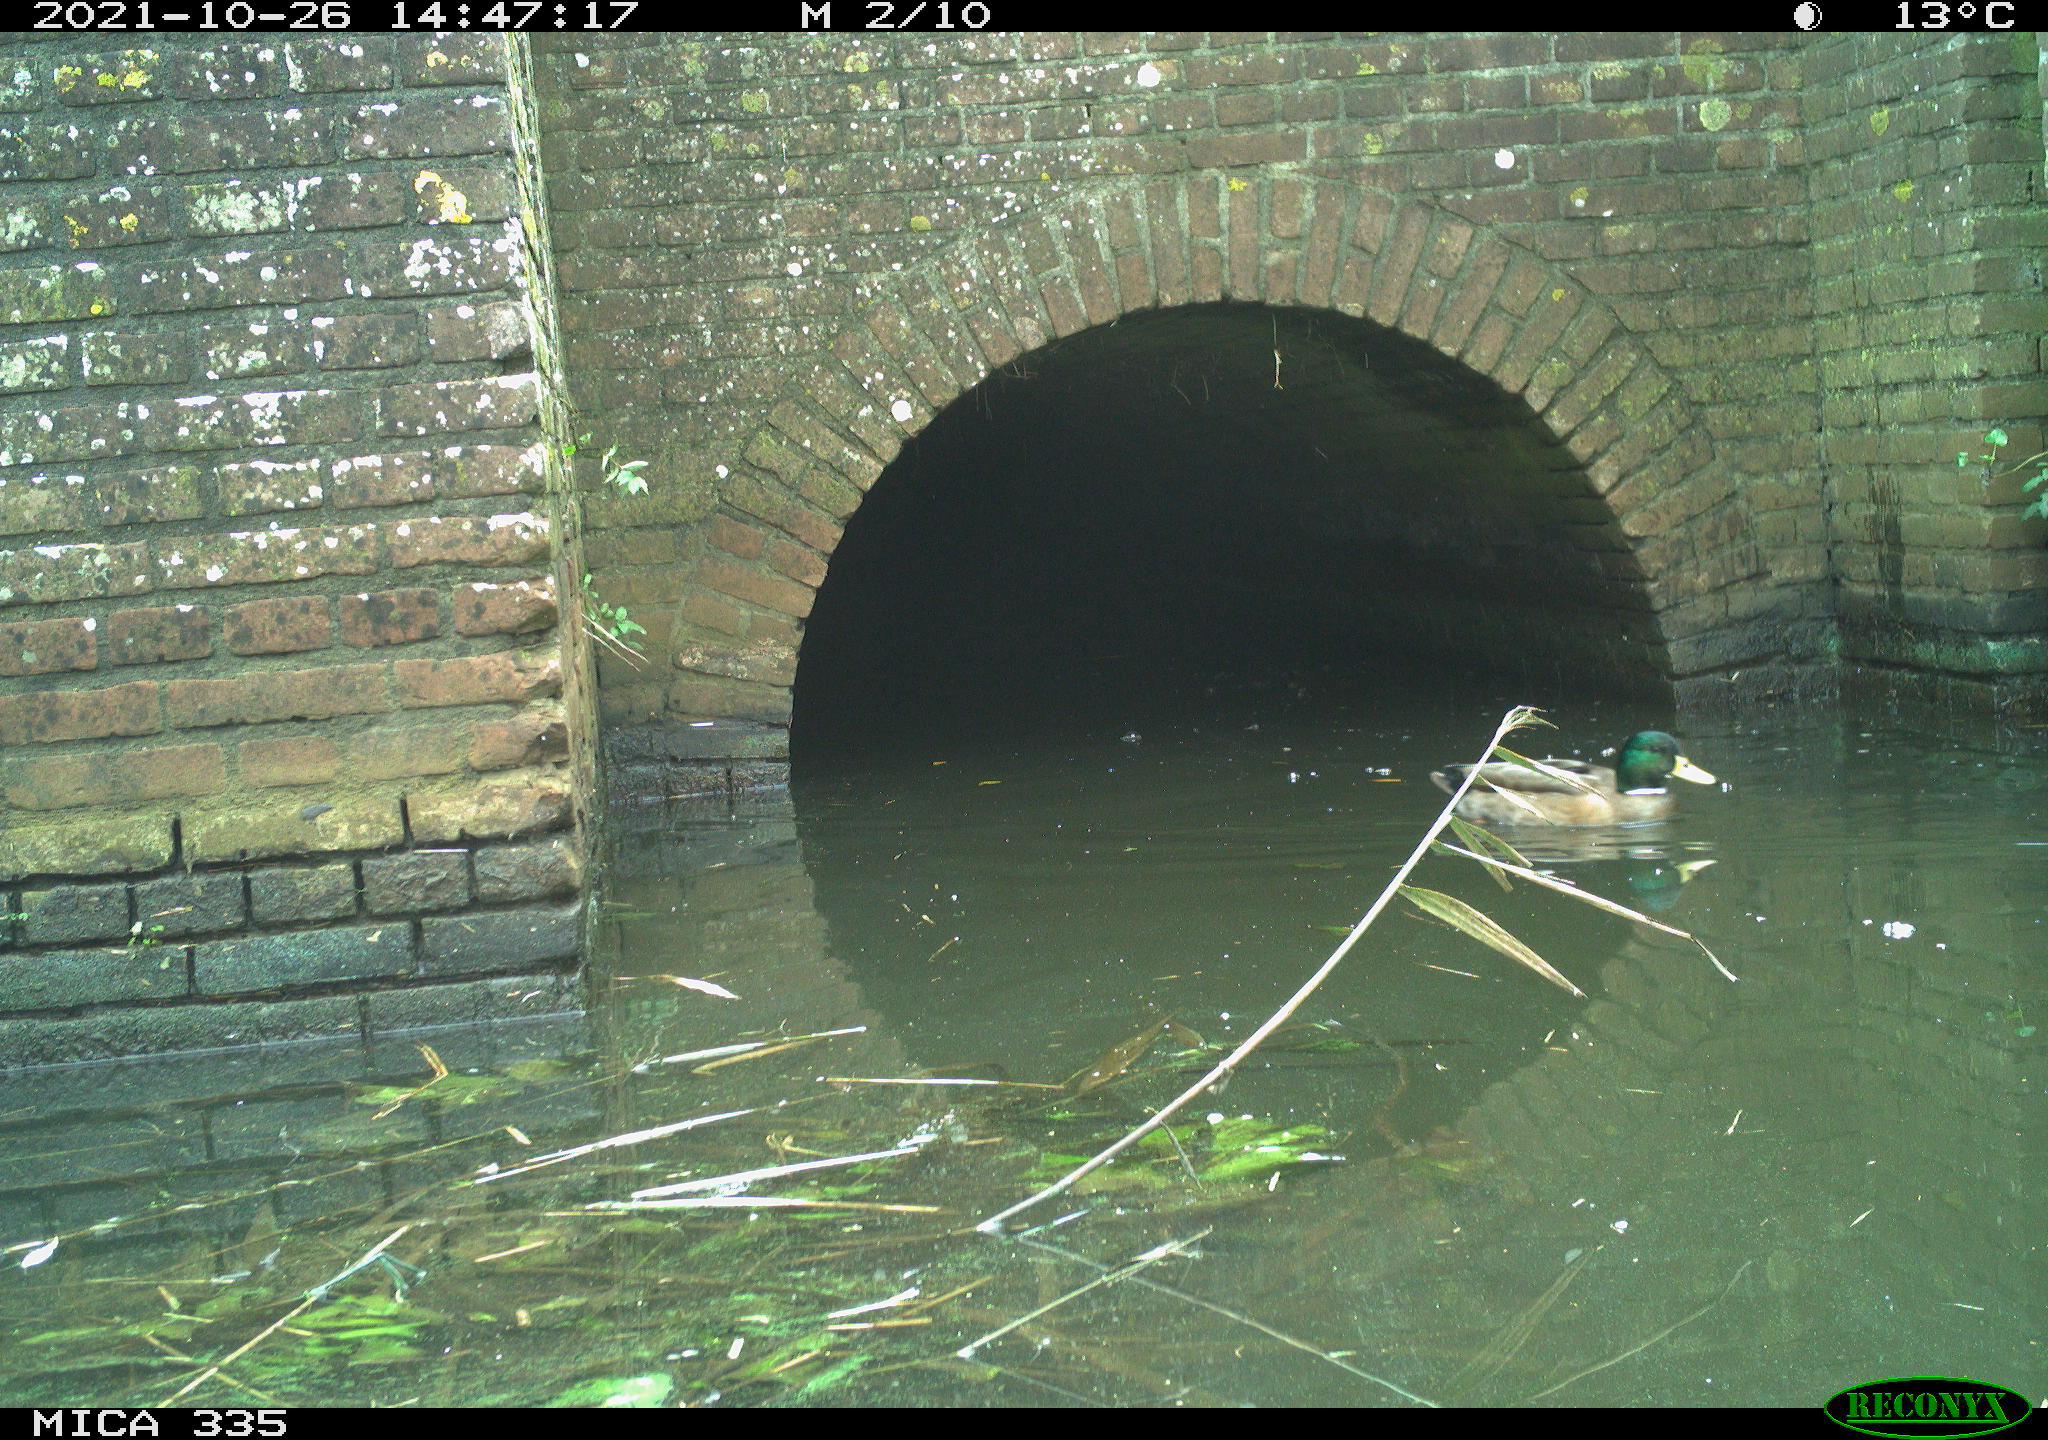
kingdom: Animalia
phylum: Chordata
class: Aves
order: Anseriformes
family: Anatidae
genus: Anas
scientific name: Anas platyrhynchos
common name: Mallard
